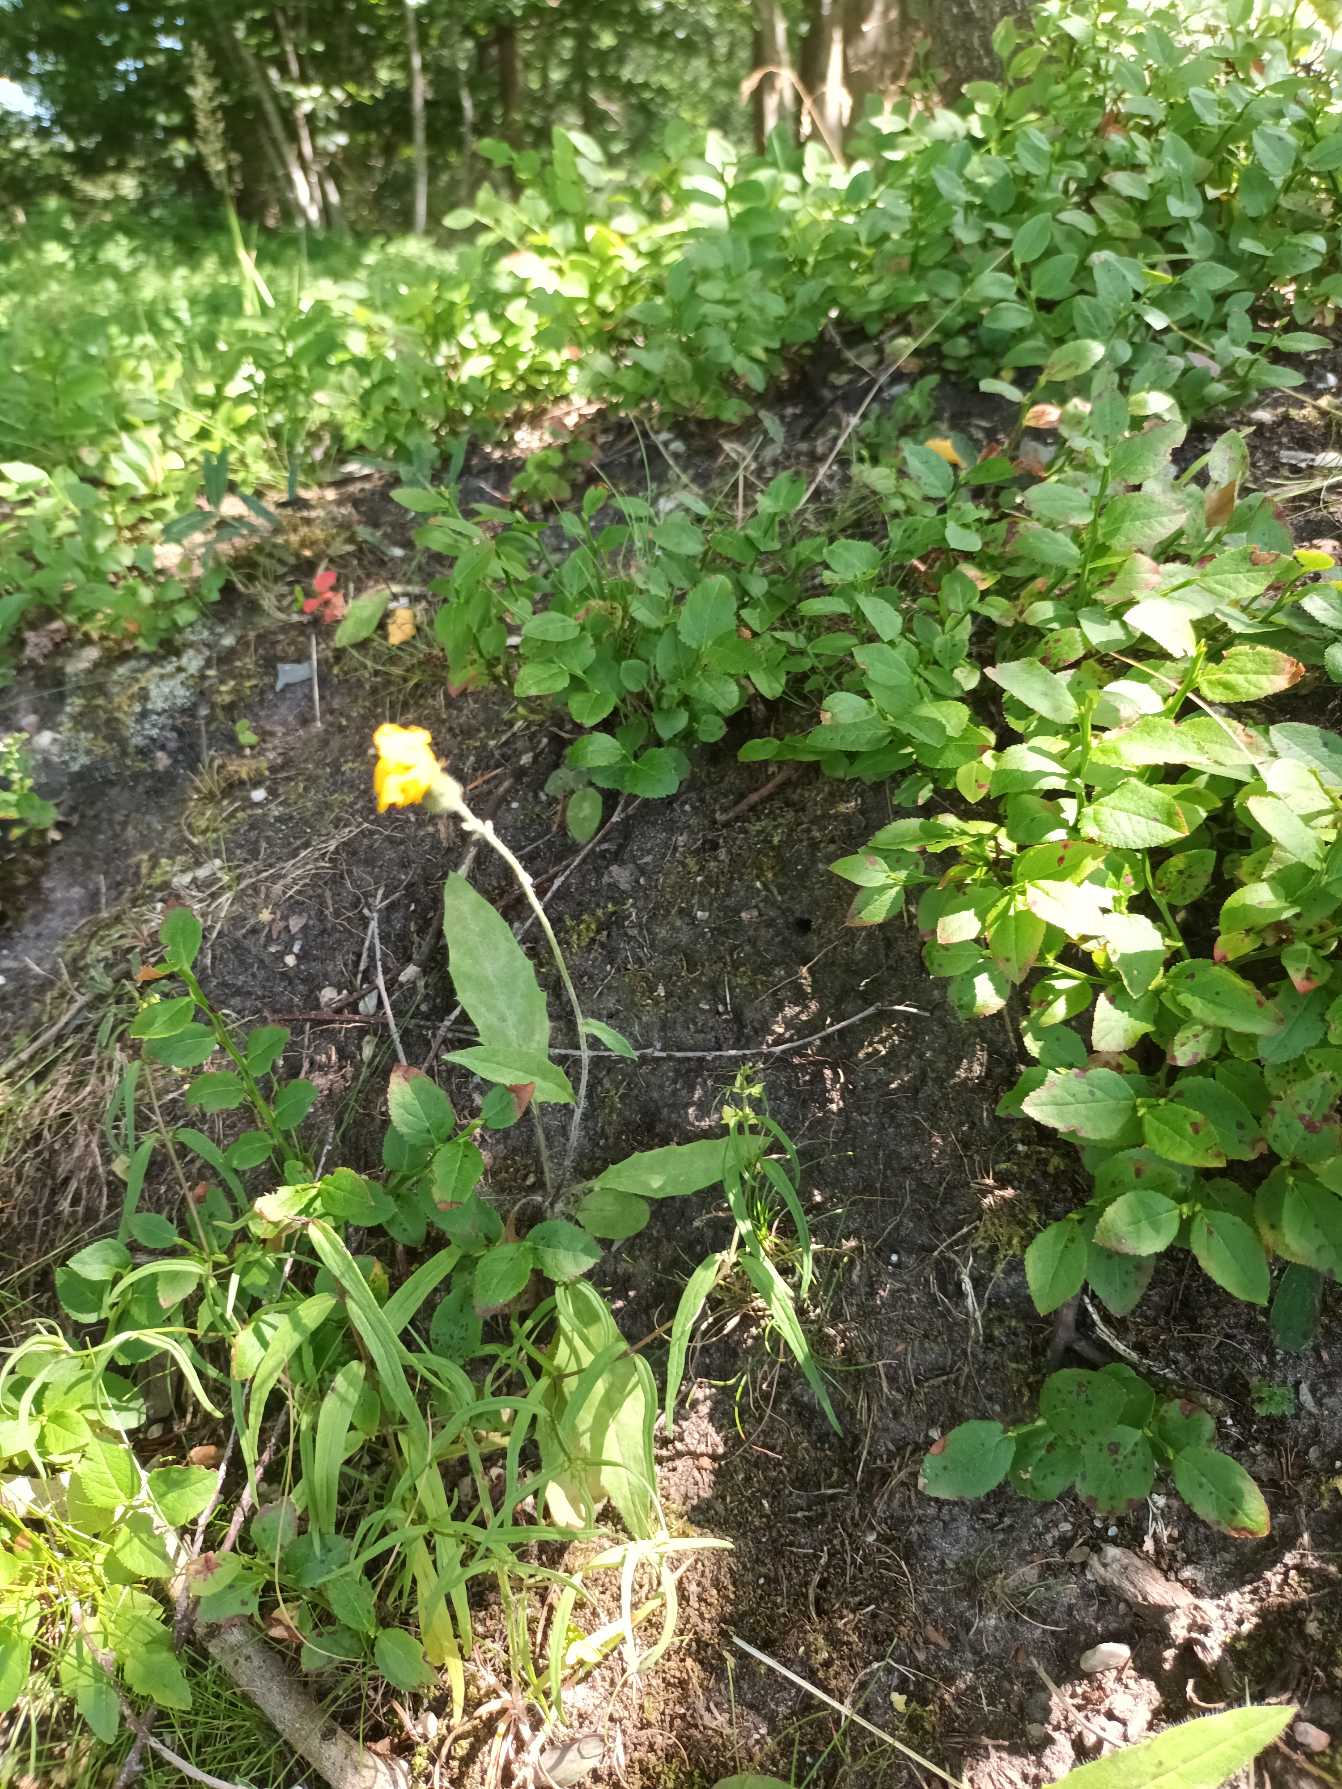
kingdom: Plantae
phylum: Tracheophyta
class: Magnoliopsida
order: Asterales
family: Asteraceae
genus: Hieracium
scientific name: Hieracium
